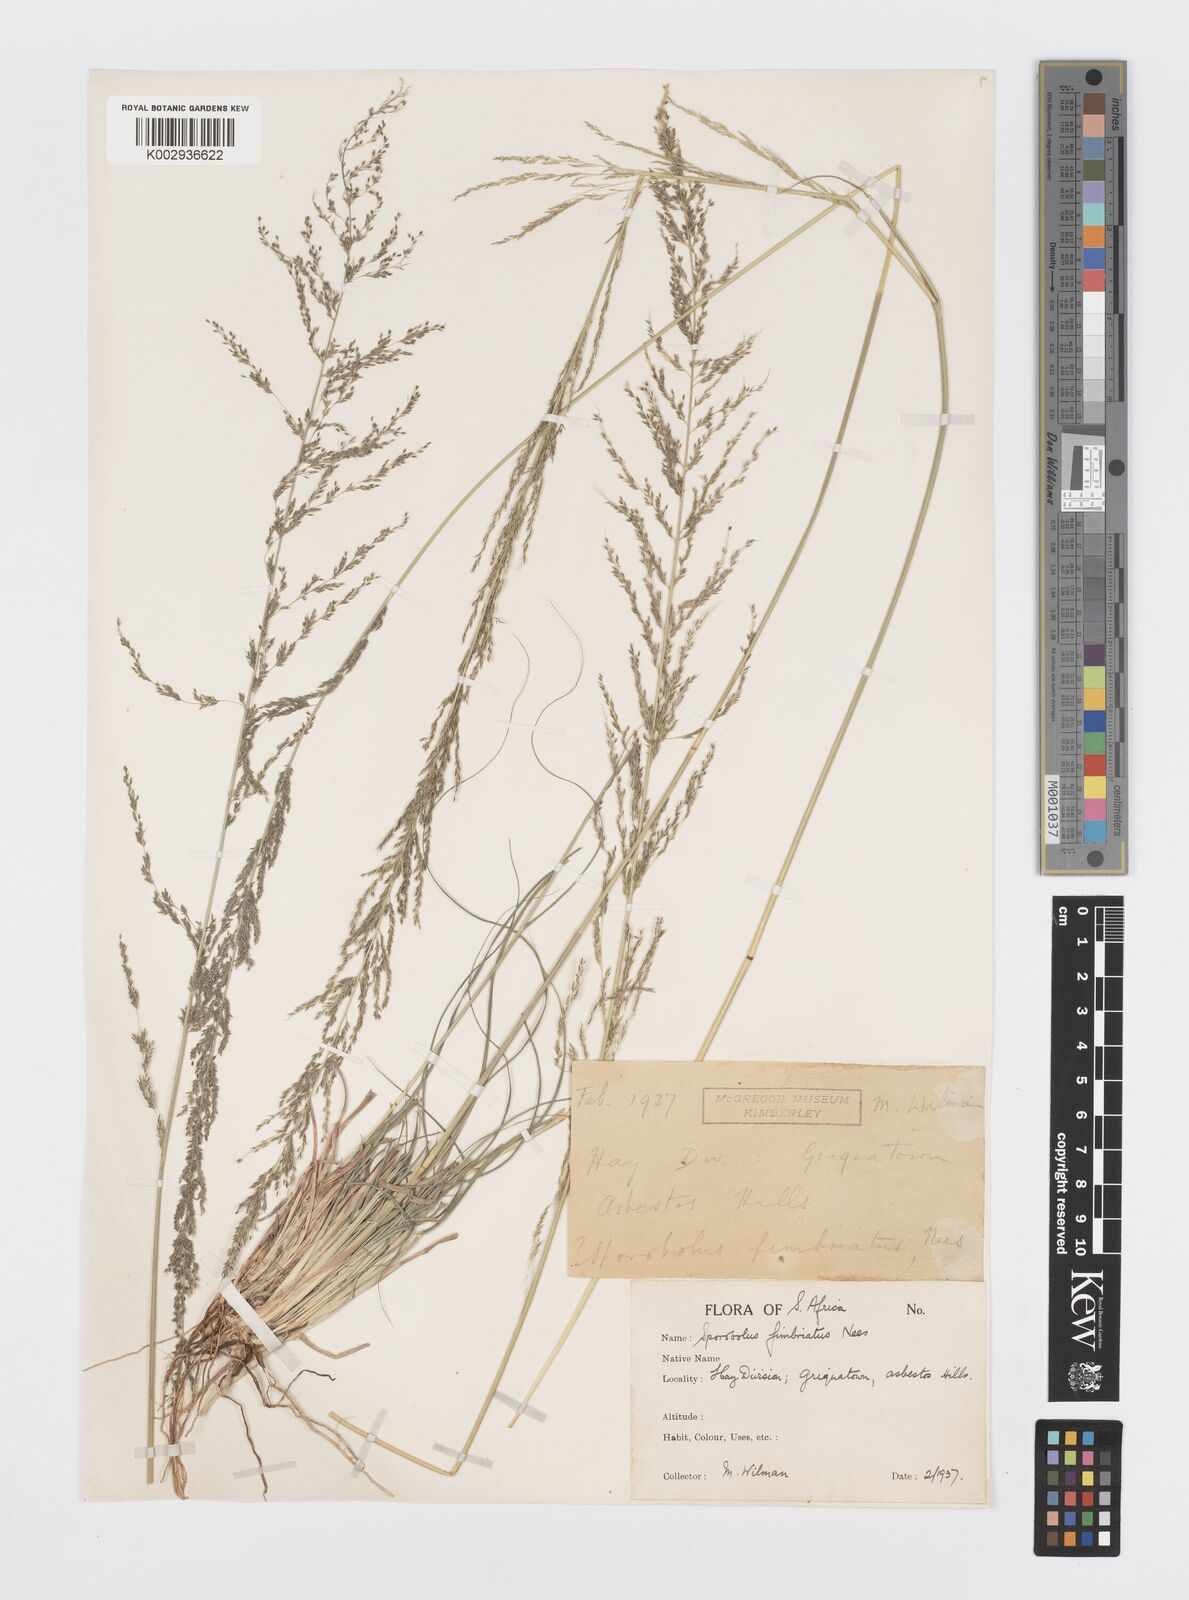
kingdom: Plantae
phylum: Tracheophyta
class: Liliopsida
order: Poales
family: Poaceae
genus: Sporobolus
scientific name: Sporobolus fimbriatus
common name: Fringed dropseed
